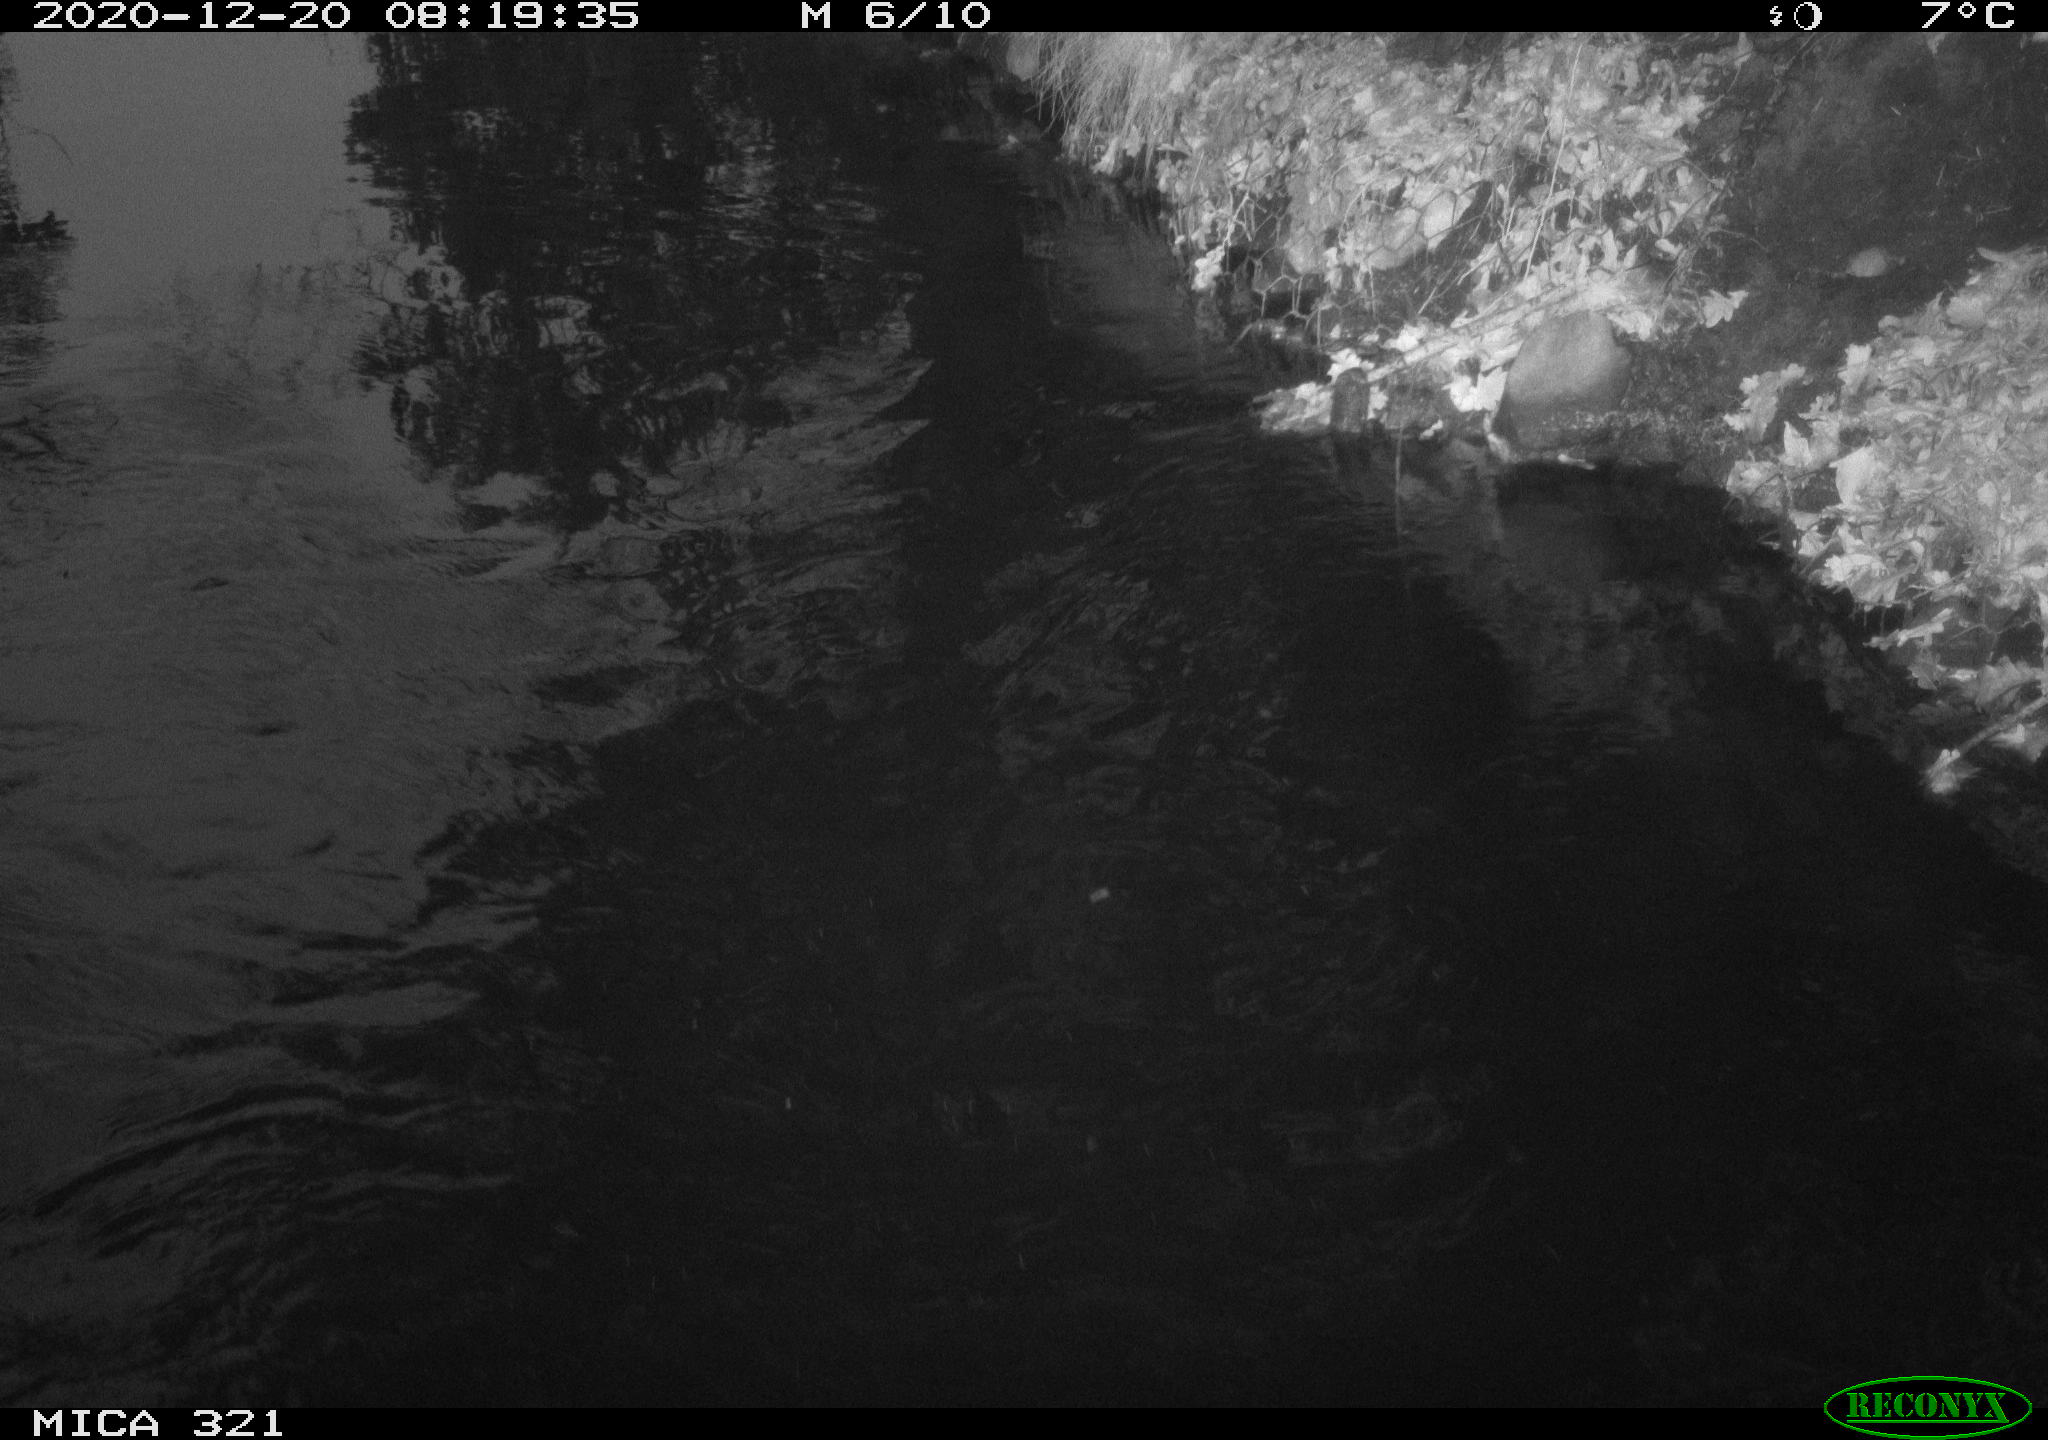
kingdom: Animalia
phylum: Chordata
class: Aves
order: Anseriformes
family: Anatidae
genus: Anas
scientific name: Anas platyrhynchos
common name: Mallard
